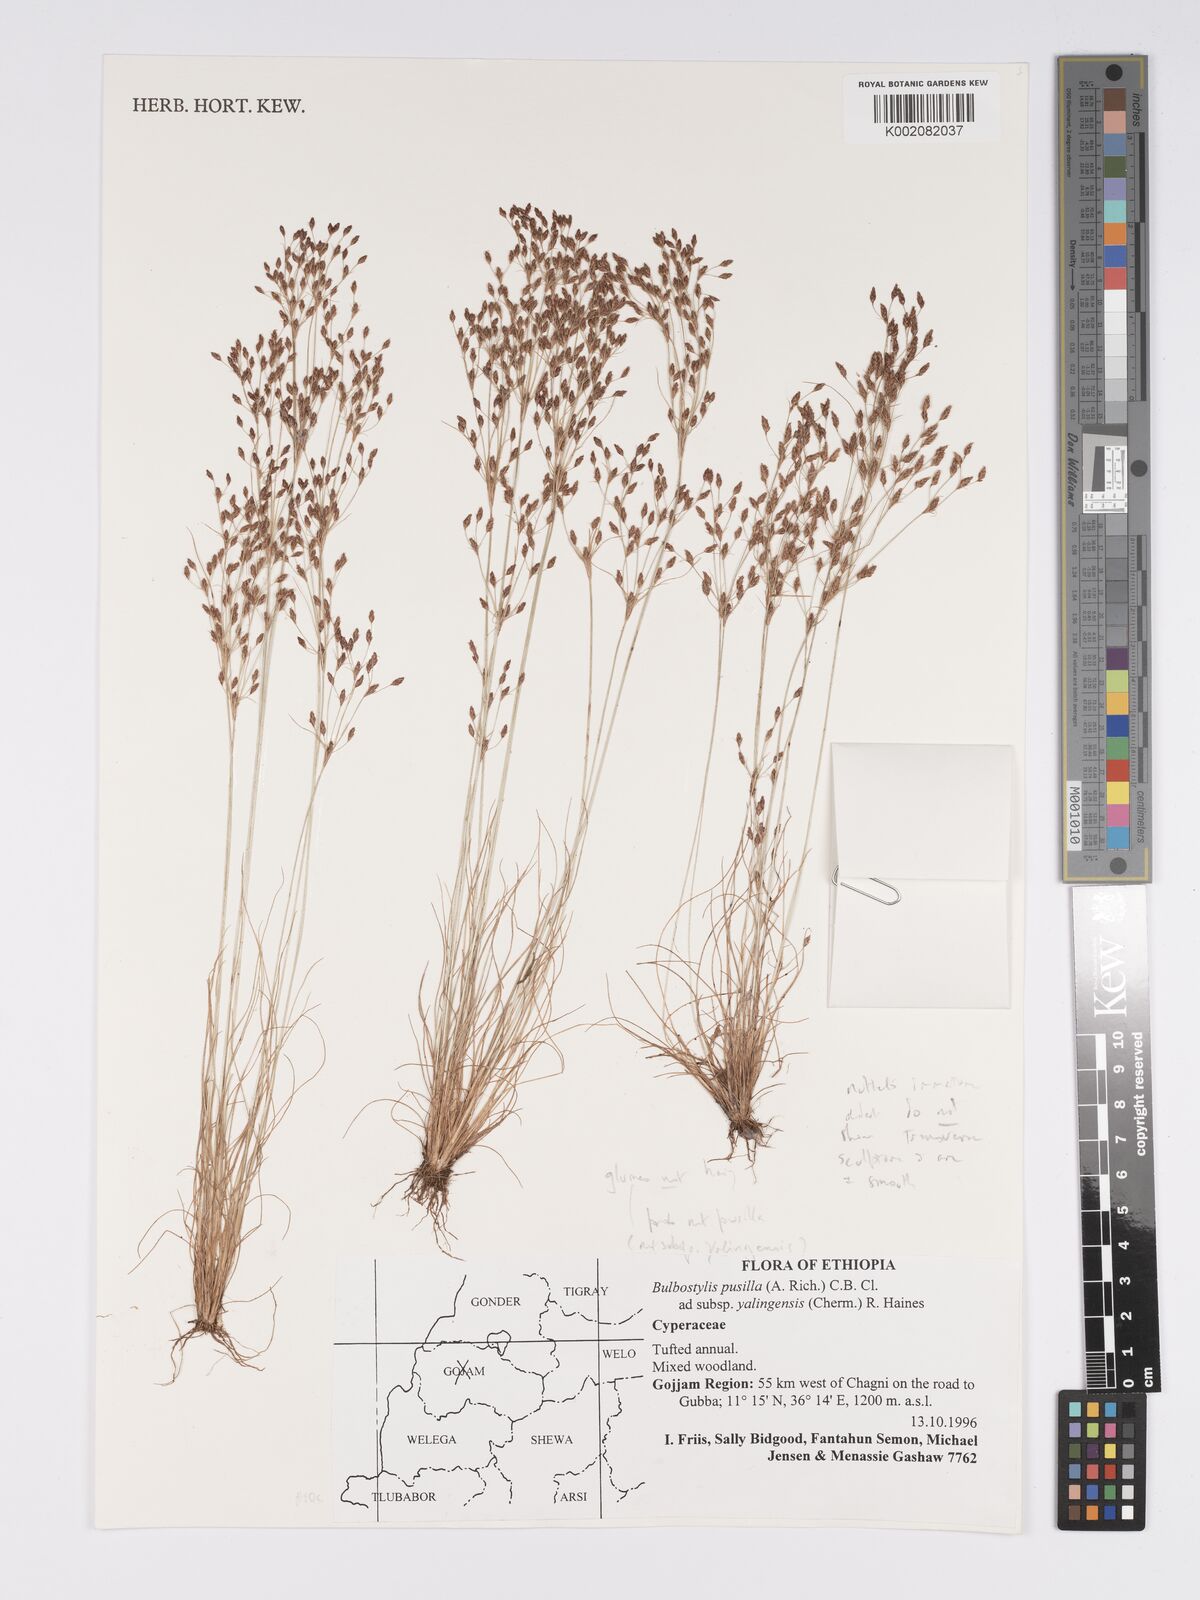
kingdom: Plantae
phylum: Tracheophyta
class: Liliopsida
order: Poales
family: Cyperaceae
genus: Bulbostylis
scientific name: Bulbostylis pusilla
